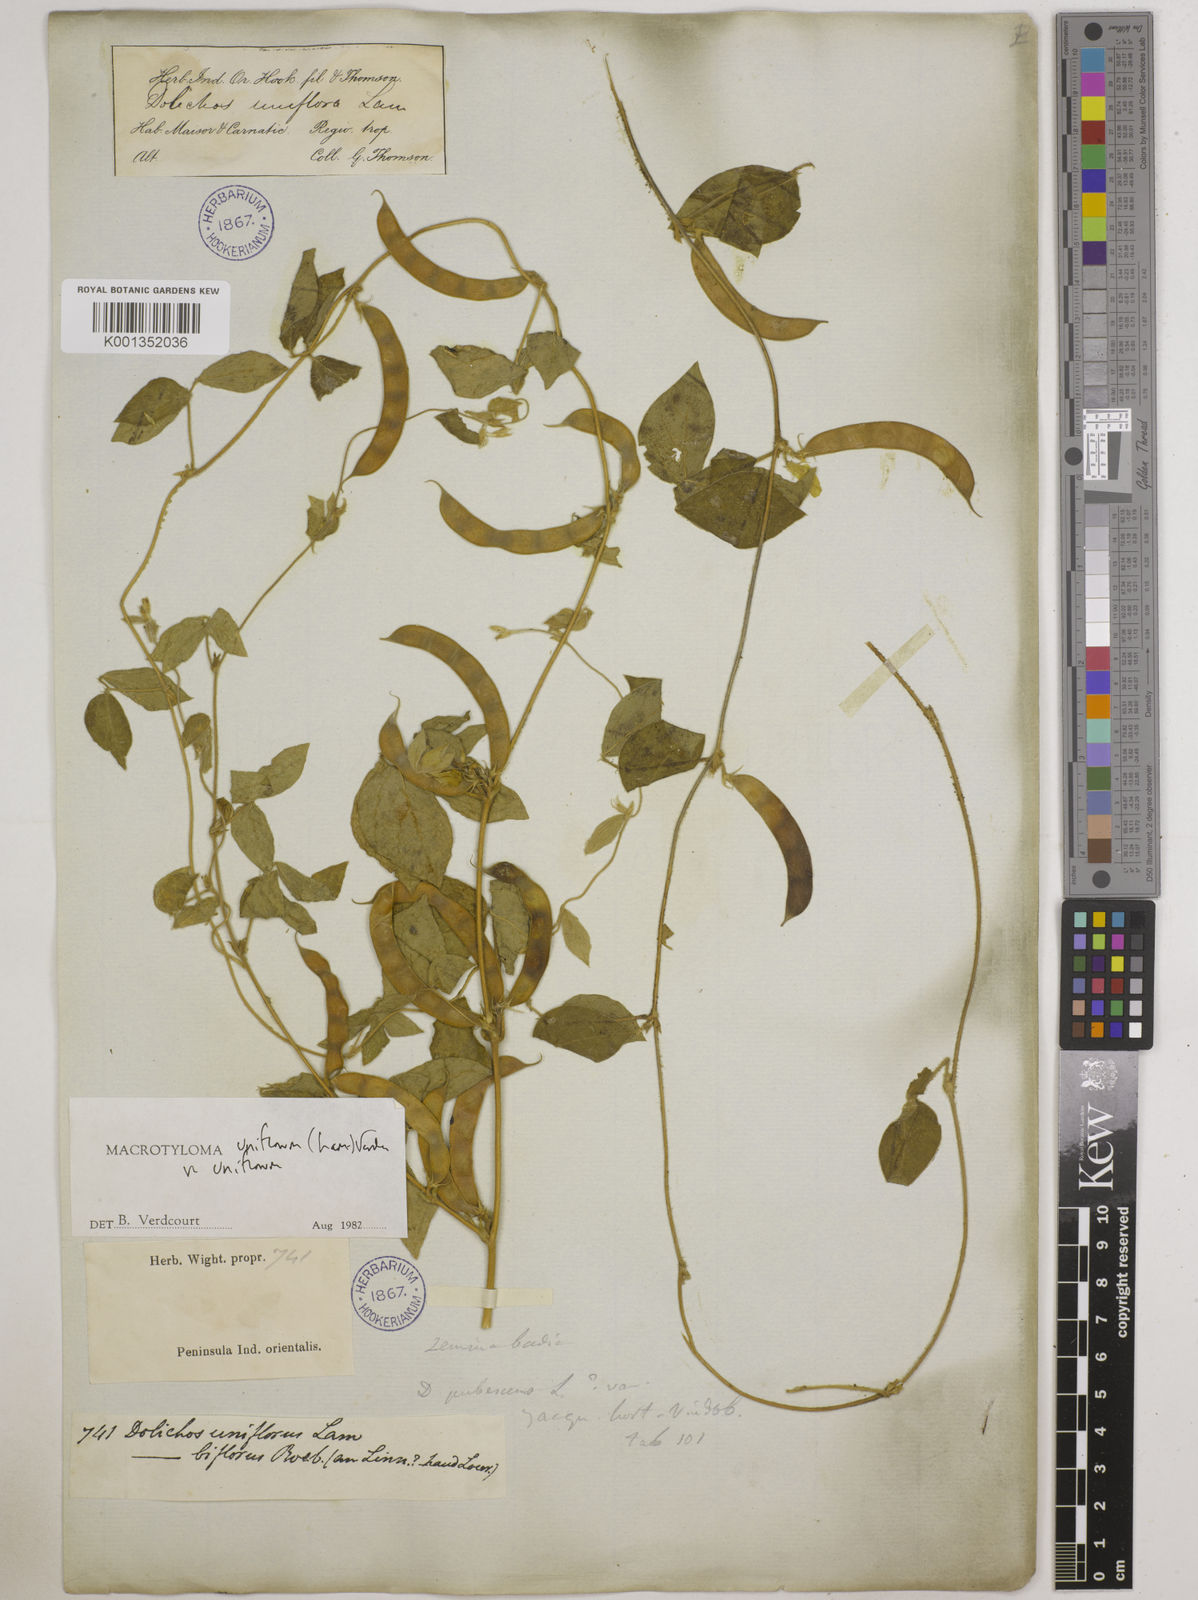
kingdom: Plantae
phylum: Tracheophyta
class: Magnoliopsida
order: Fabales
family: Fabaceae
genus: Macrotyloma
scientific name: Macrotyloma uniflorum
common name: Horse gram
